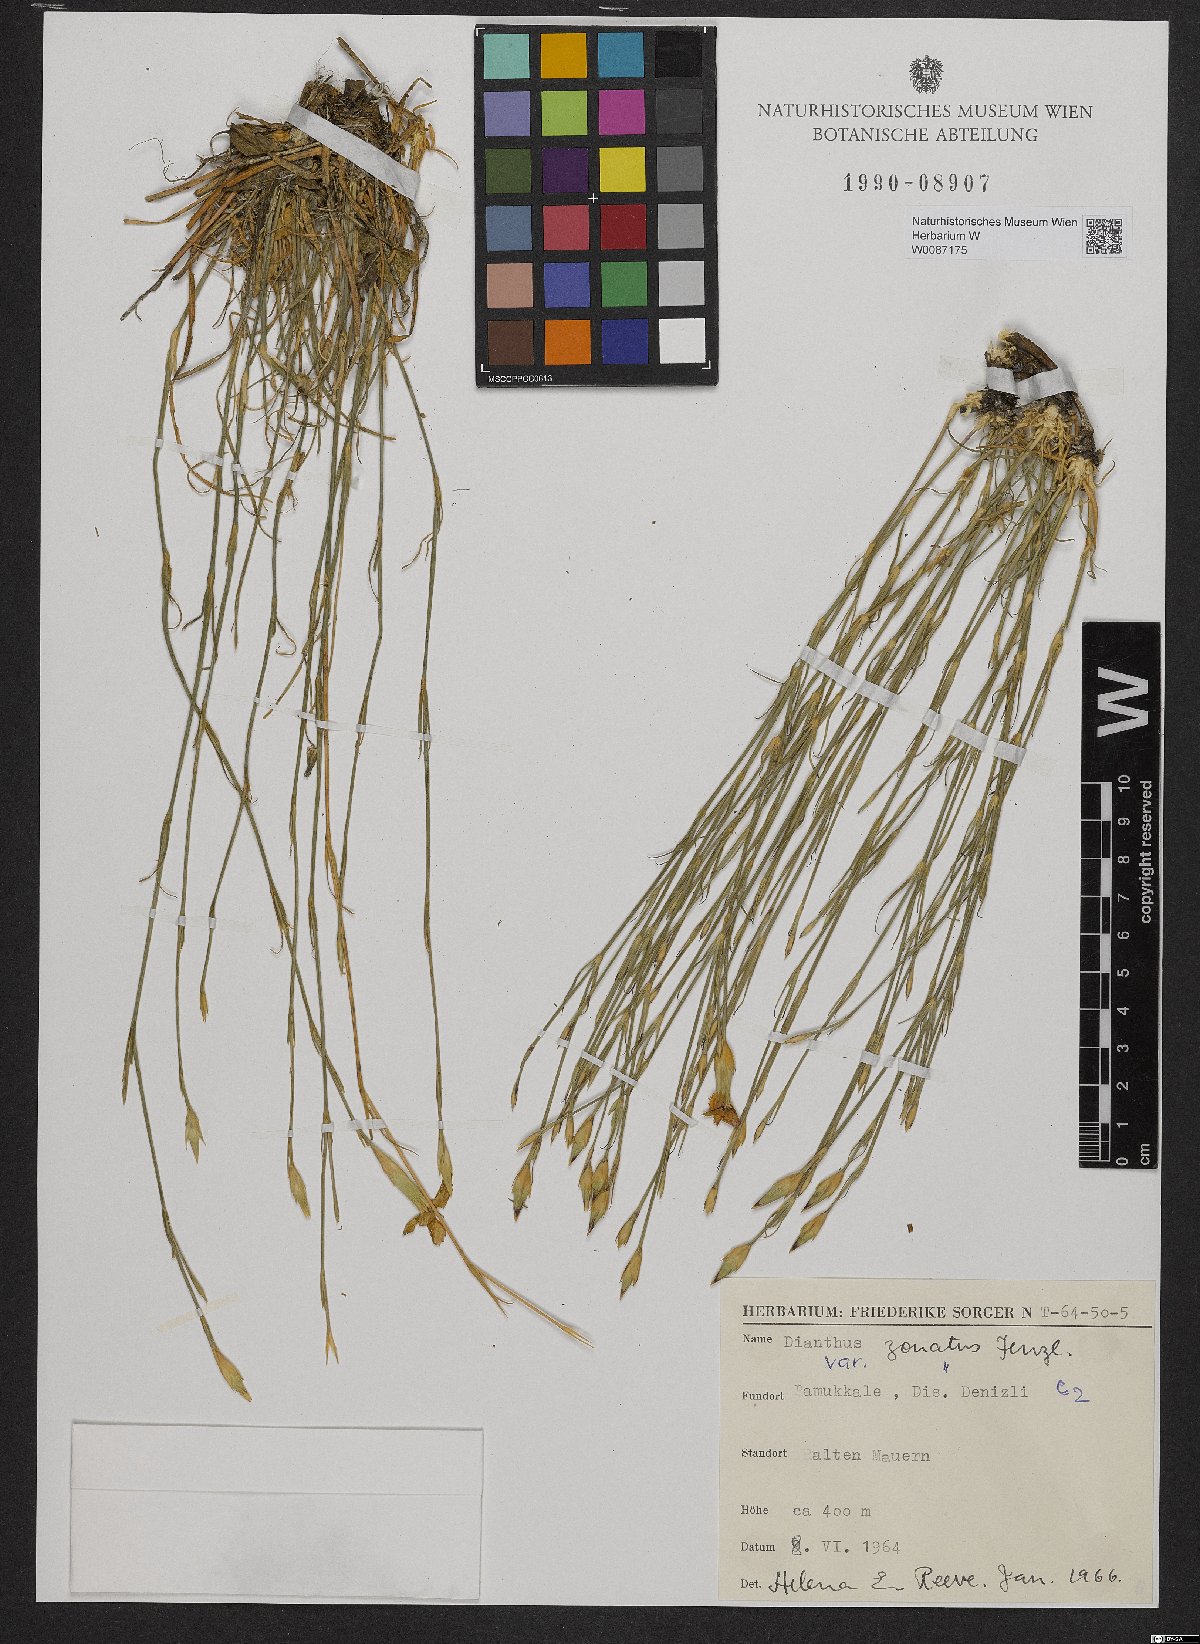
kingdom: Plantae
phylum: Tracheophyta
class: Magnoliopsida
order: Caryophyllales
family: Caryophyllaceae
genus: Dianthus
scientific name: Dianthus zonatus
